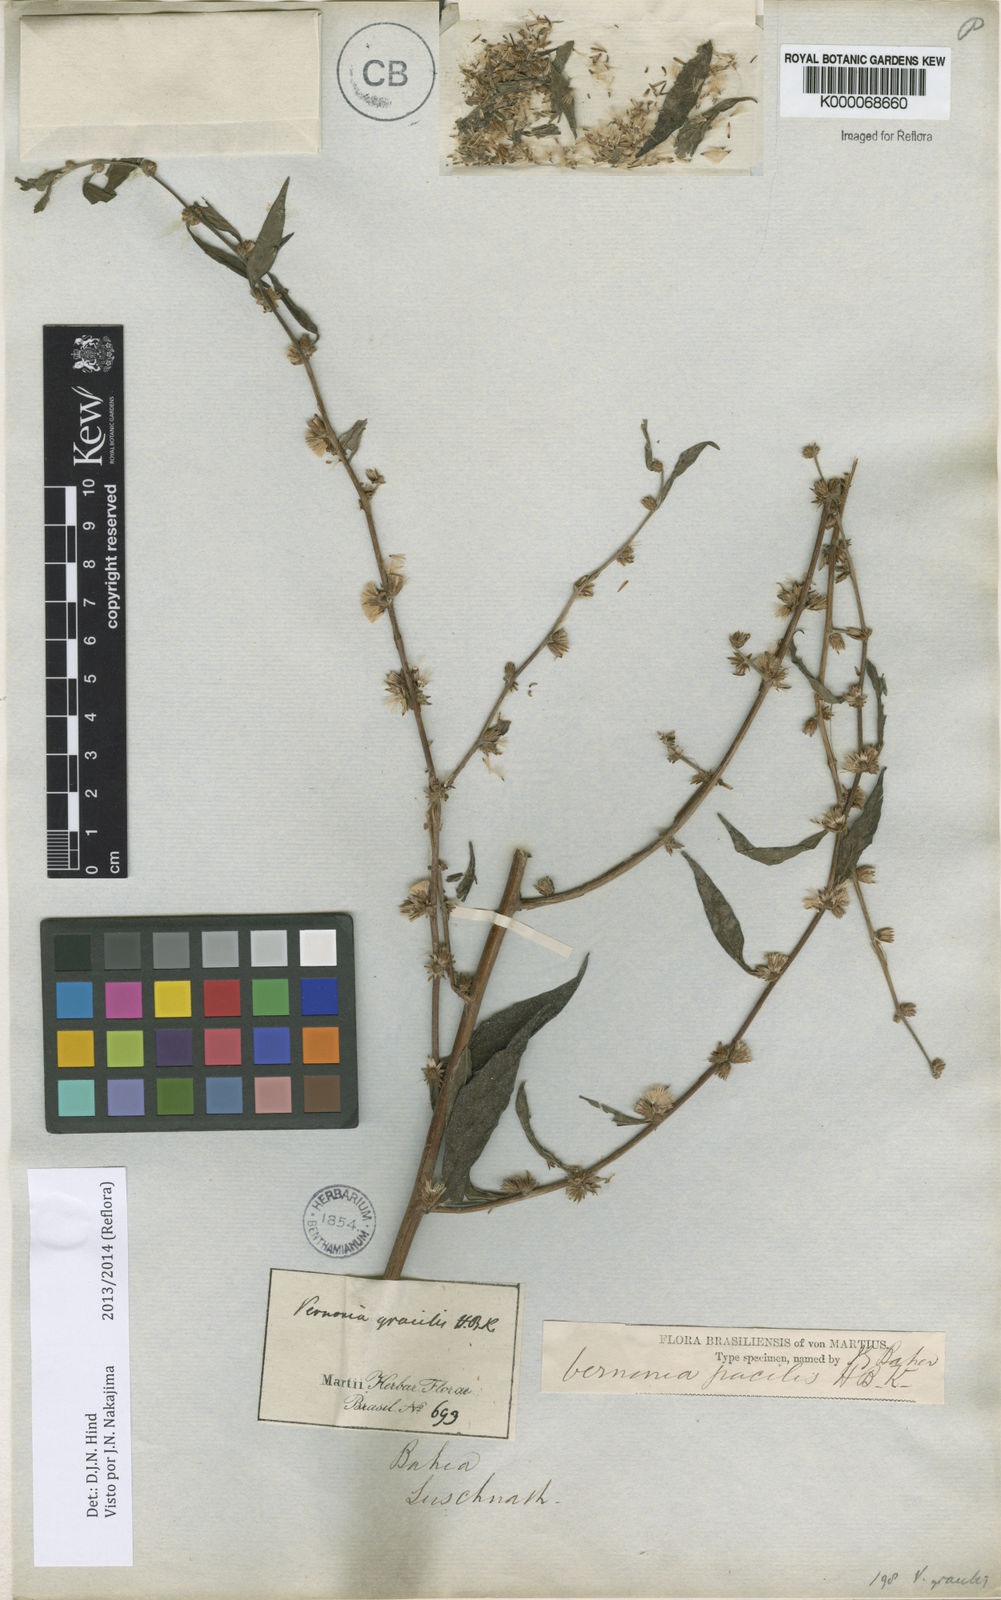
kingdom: Plantae
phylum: Tracheophyta
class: Magnoliopsida
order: Asterales
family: Asteraceae
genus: Lepidaploa
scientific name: Lepidaploa salzmannii
